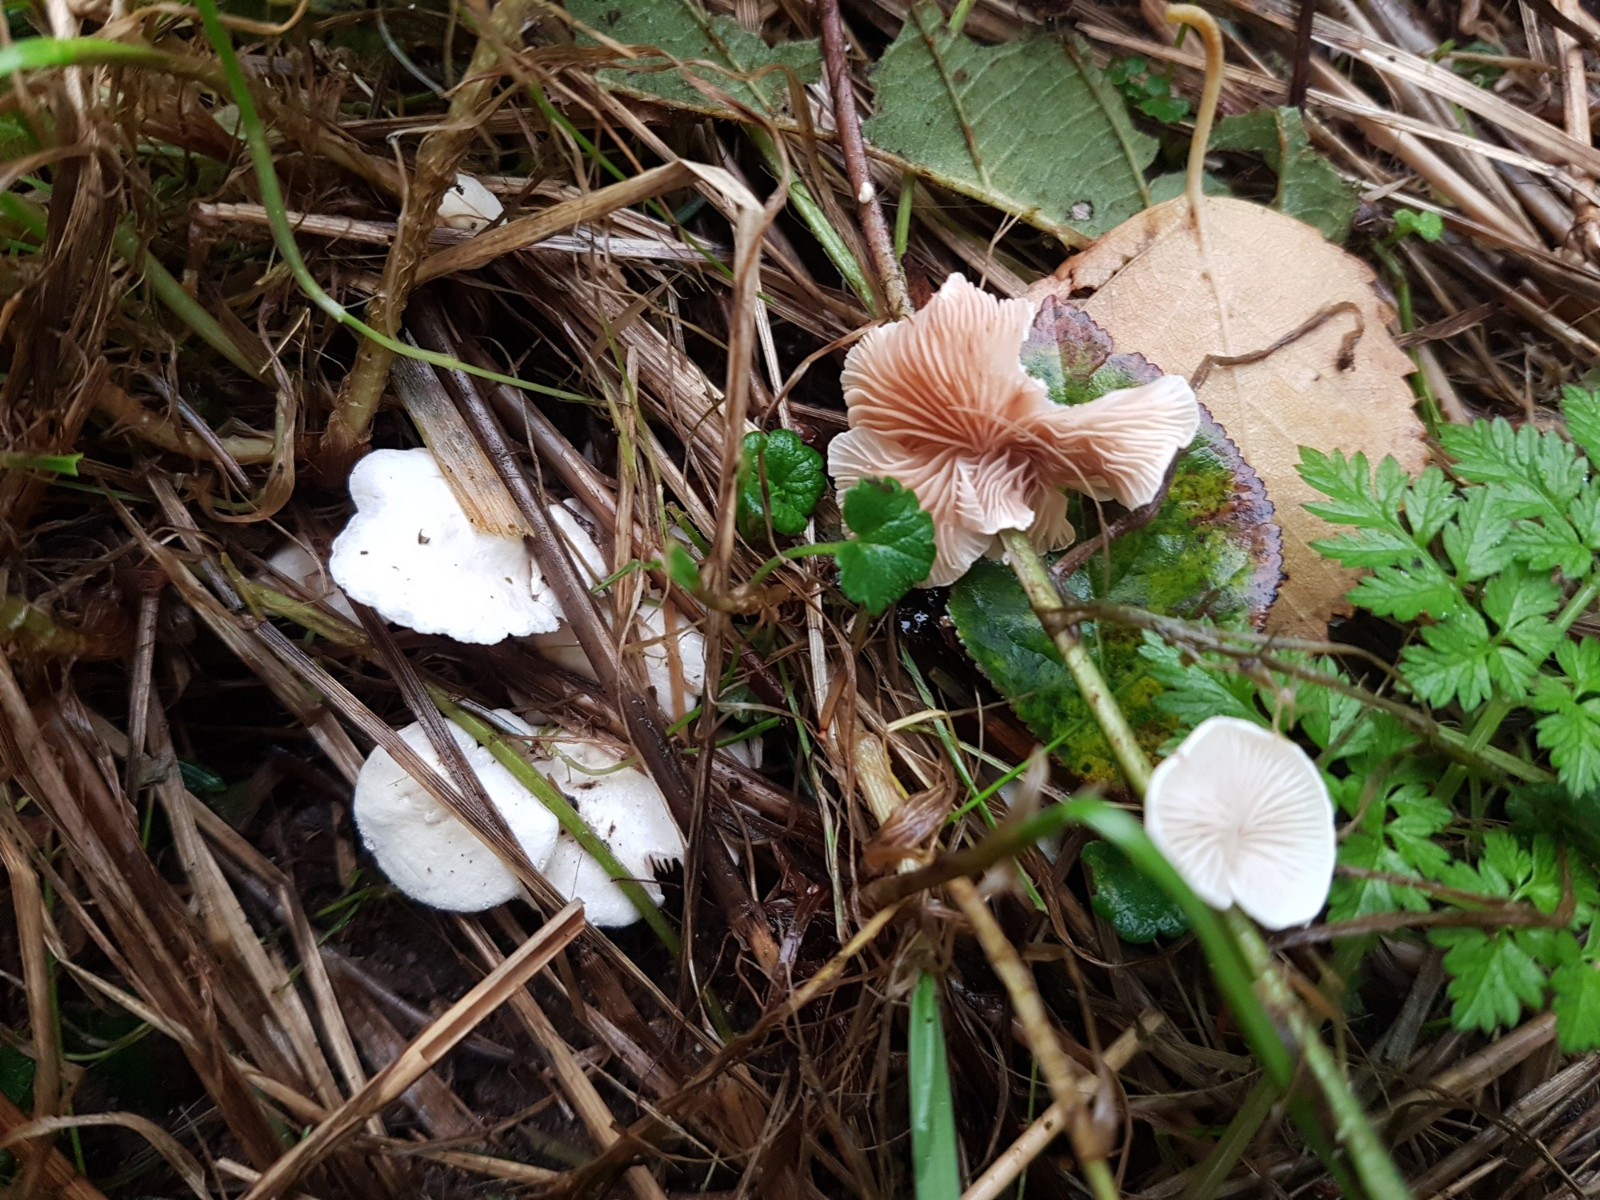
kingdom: Fungi
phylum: Basidiomycota
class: Agaricomycetes
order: Agaricales
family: Crepidotaceae
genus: Crepidotus
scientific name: Crepidotus luteolus
